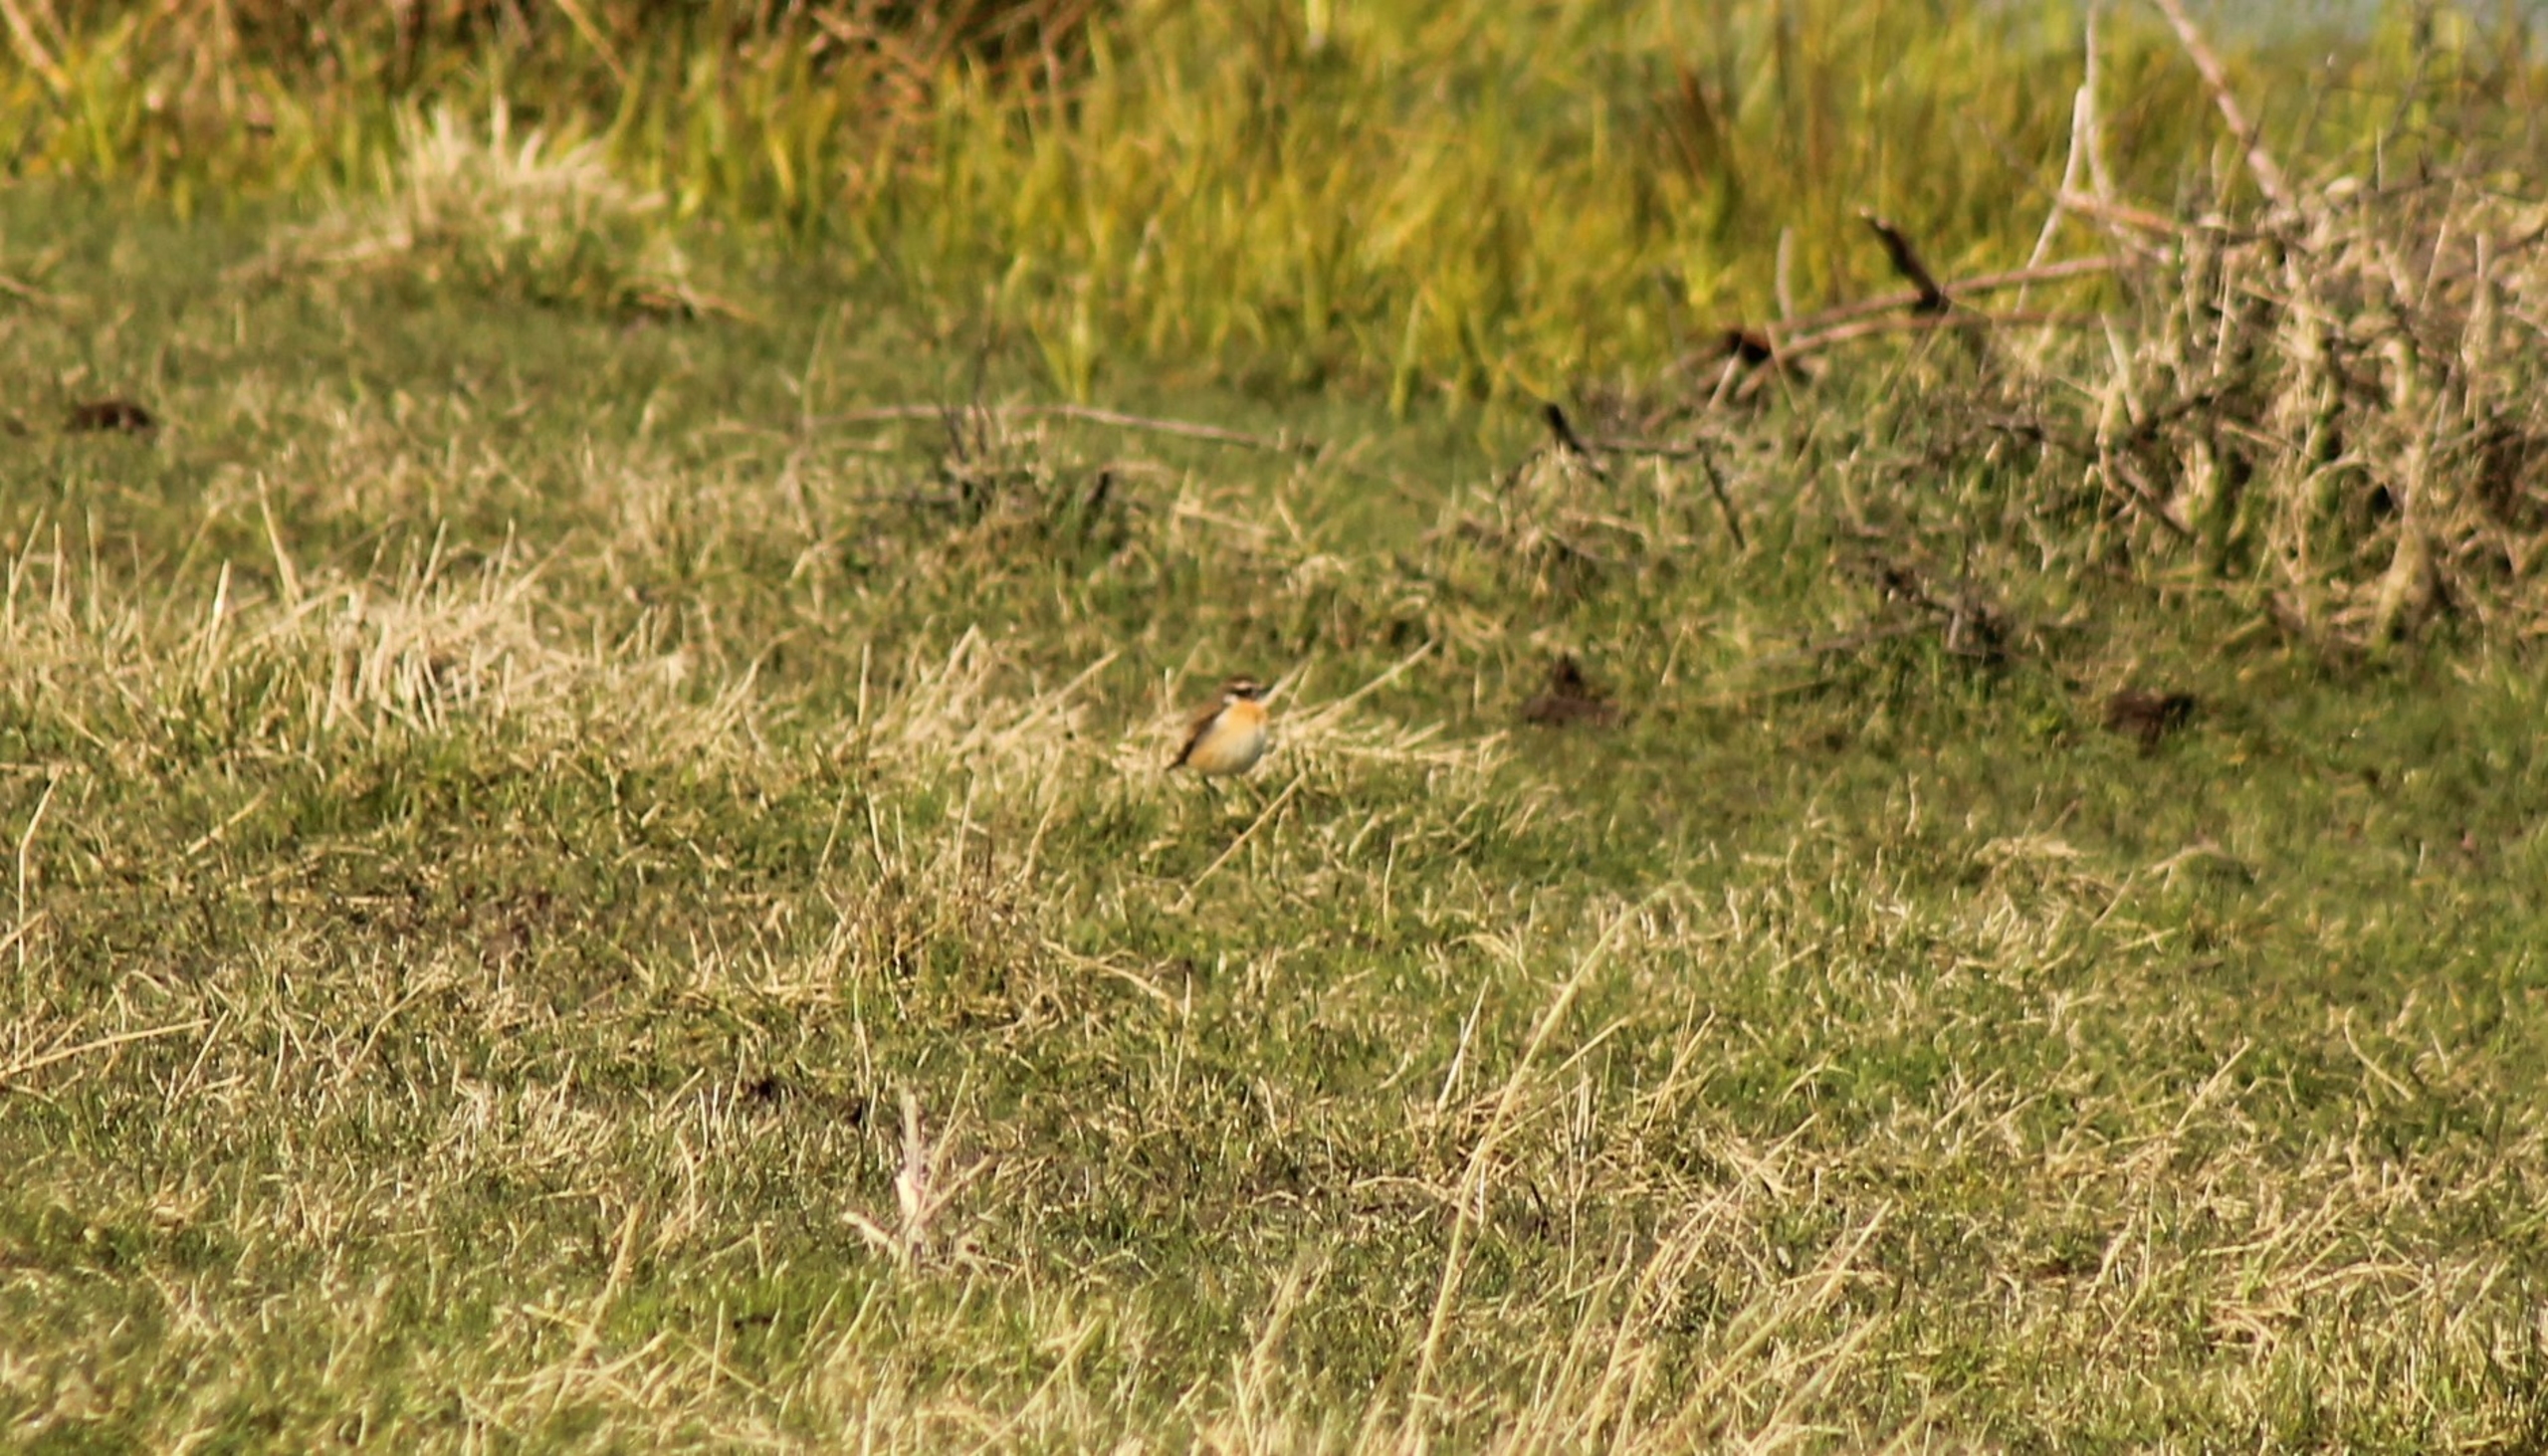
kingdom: Animalia
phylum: Chordata
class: Aves
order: Passeriformes
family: Muscicapidae
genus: Saxicola
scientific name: Saxicola rubetra
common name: Bynkefugl
